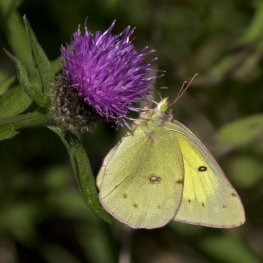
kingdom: Animalia
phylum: Arthropoda
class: Insecta
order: Lepidoptera
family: Pieridae
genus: Colias
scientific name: Colias philodice
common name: Clouded Sulphur
